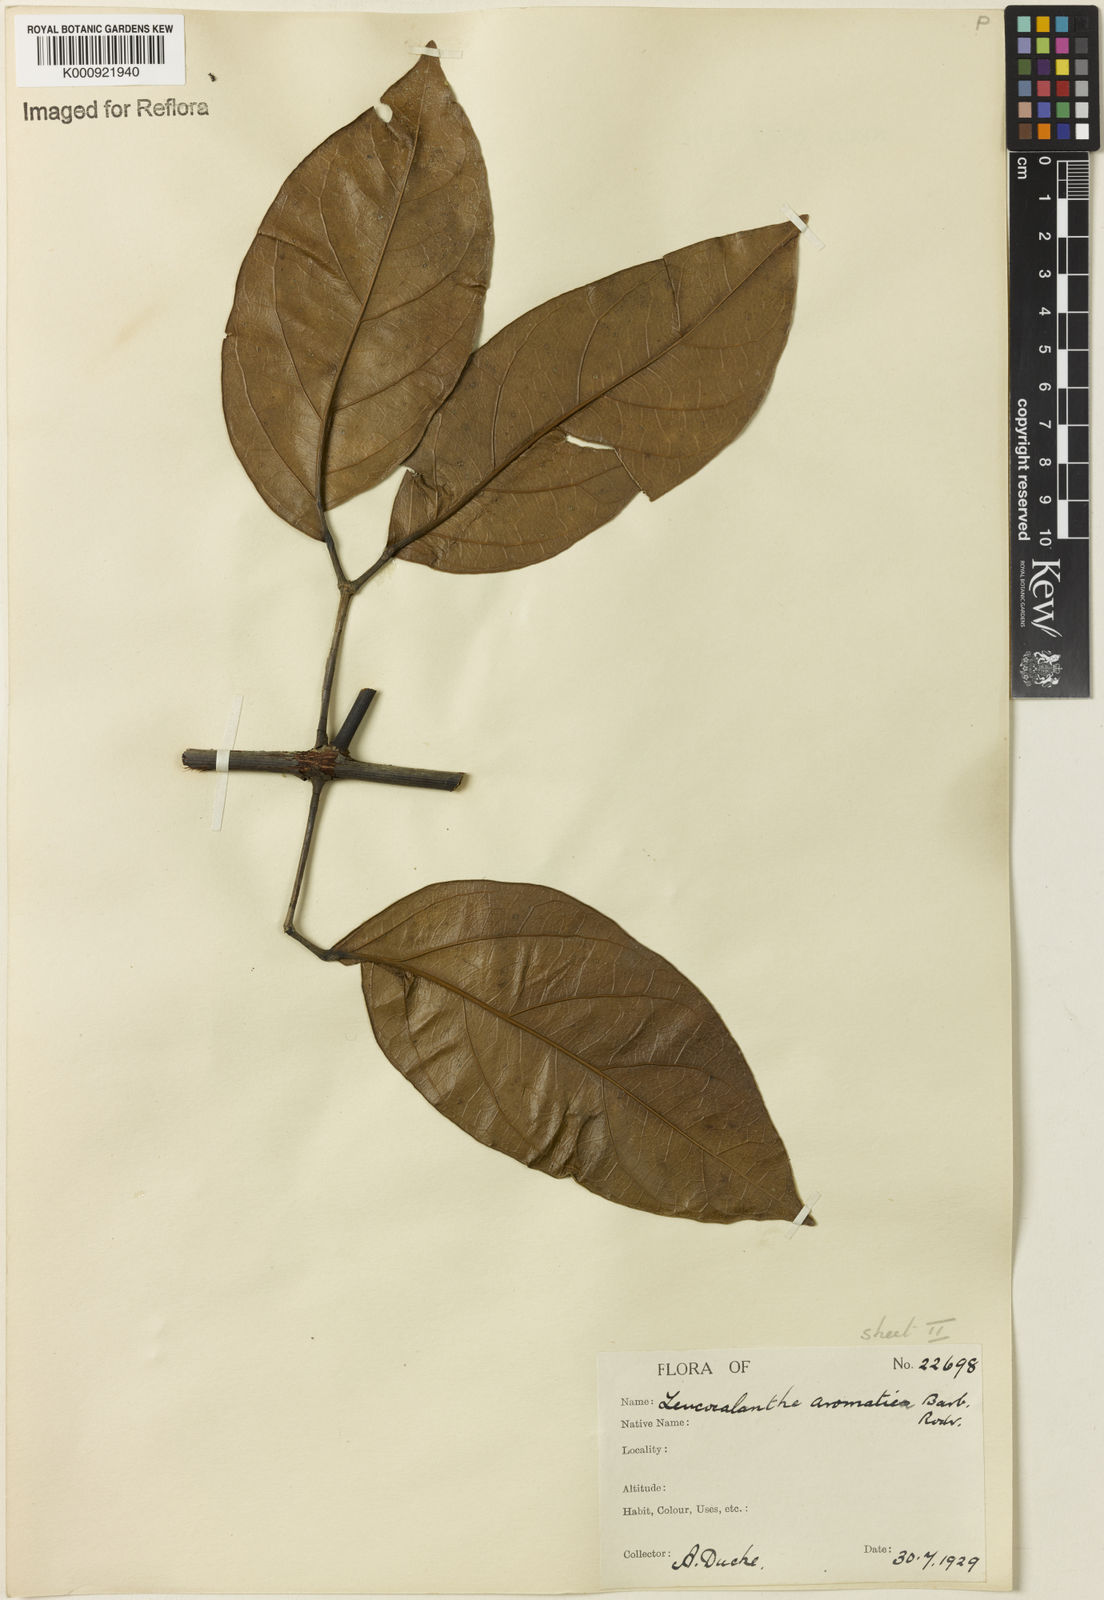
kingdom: Plantae
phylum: Tracheophyta
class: Magnoliopsida
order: Lamiales
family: Bignoniaceae
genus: Pachyptera
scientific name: Pachyptera aromatica
